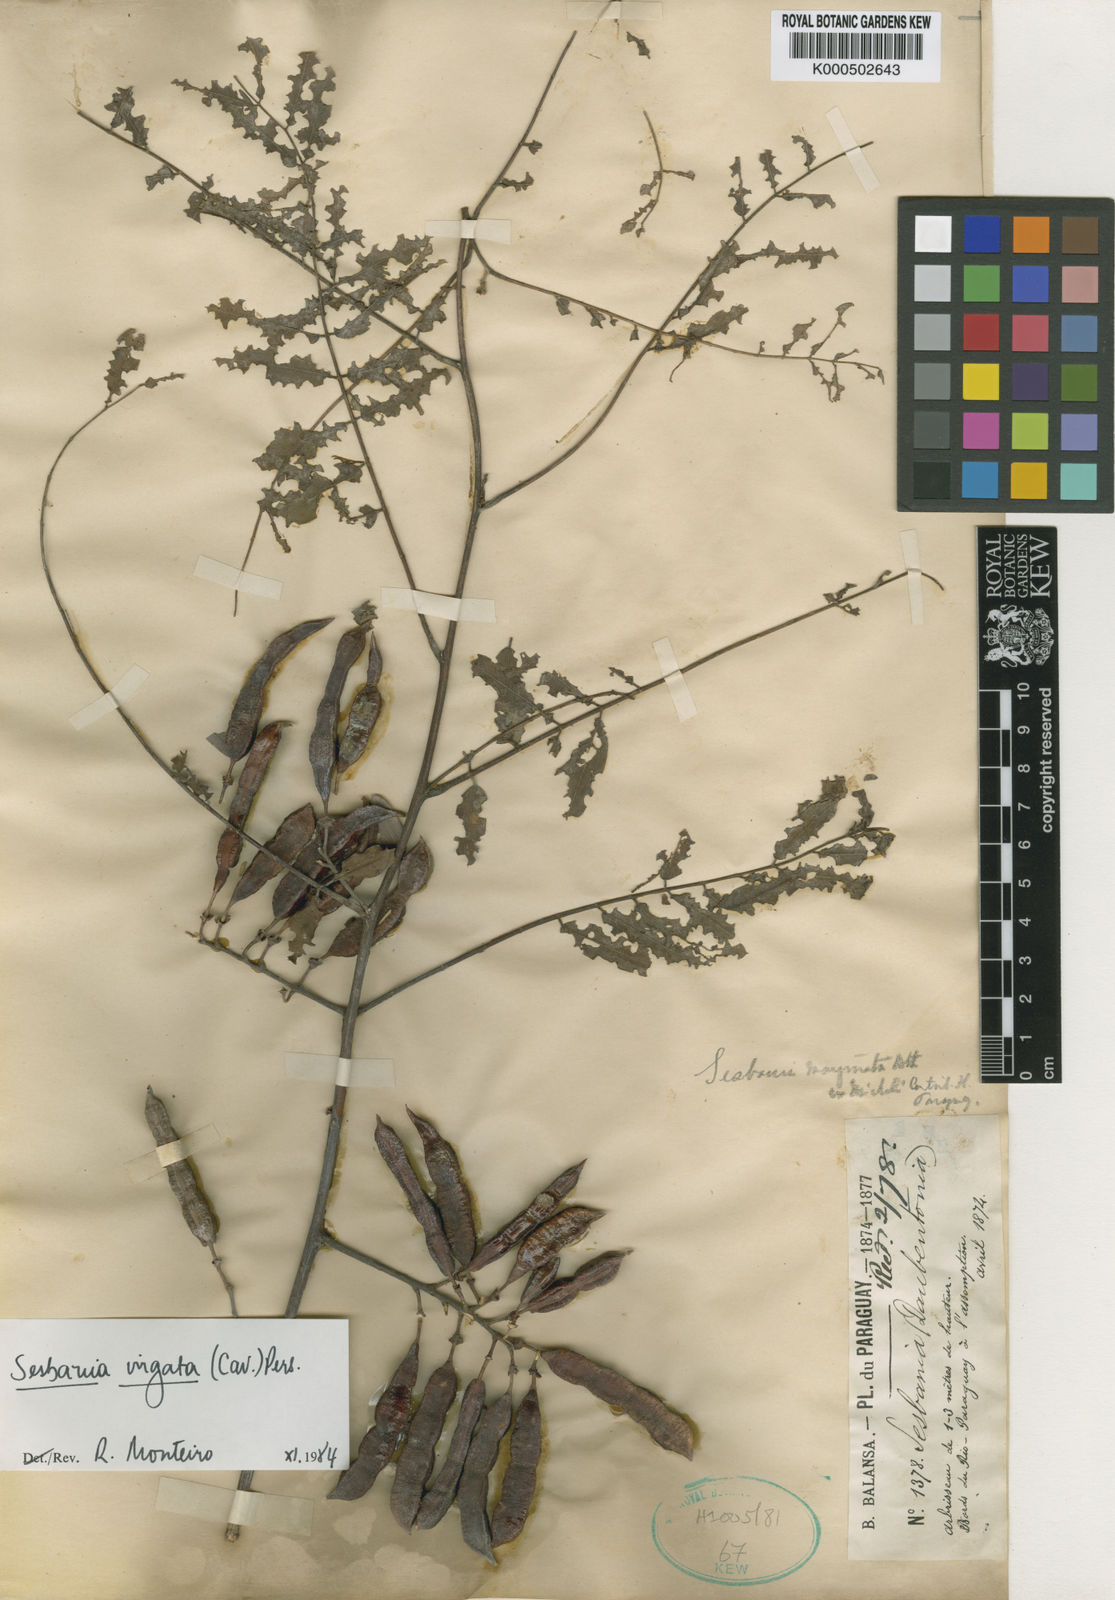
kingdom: Plantae
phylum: Tracheophyta
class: Magnoliopsida
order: Fabales
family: Fabaceae
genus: Sesbania
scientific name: Sesbania
